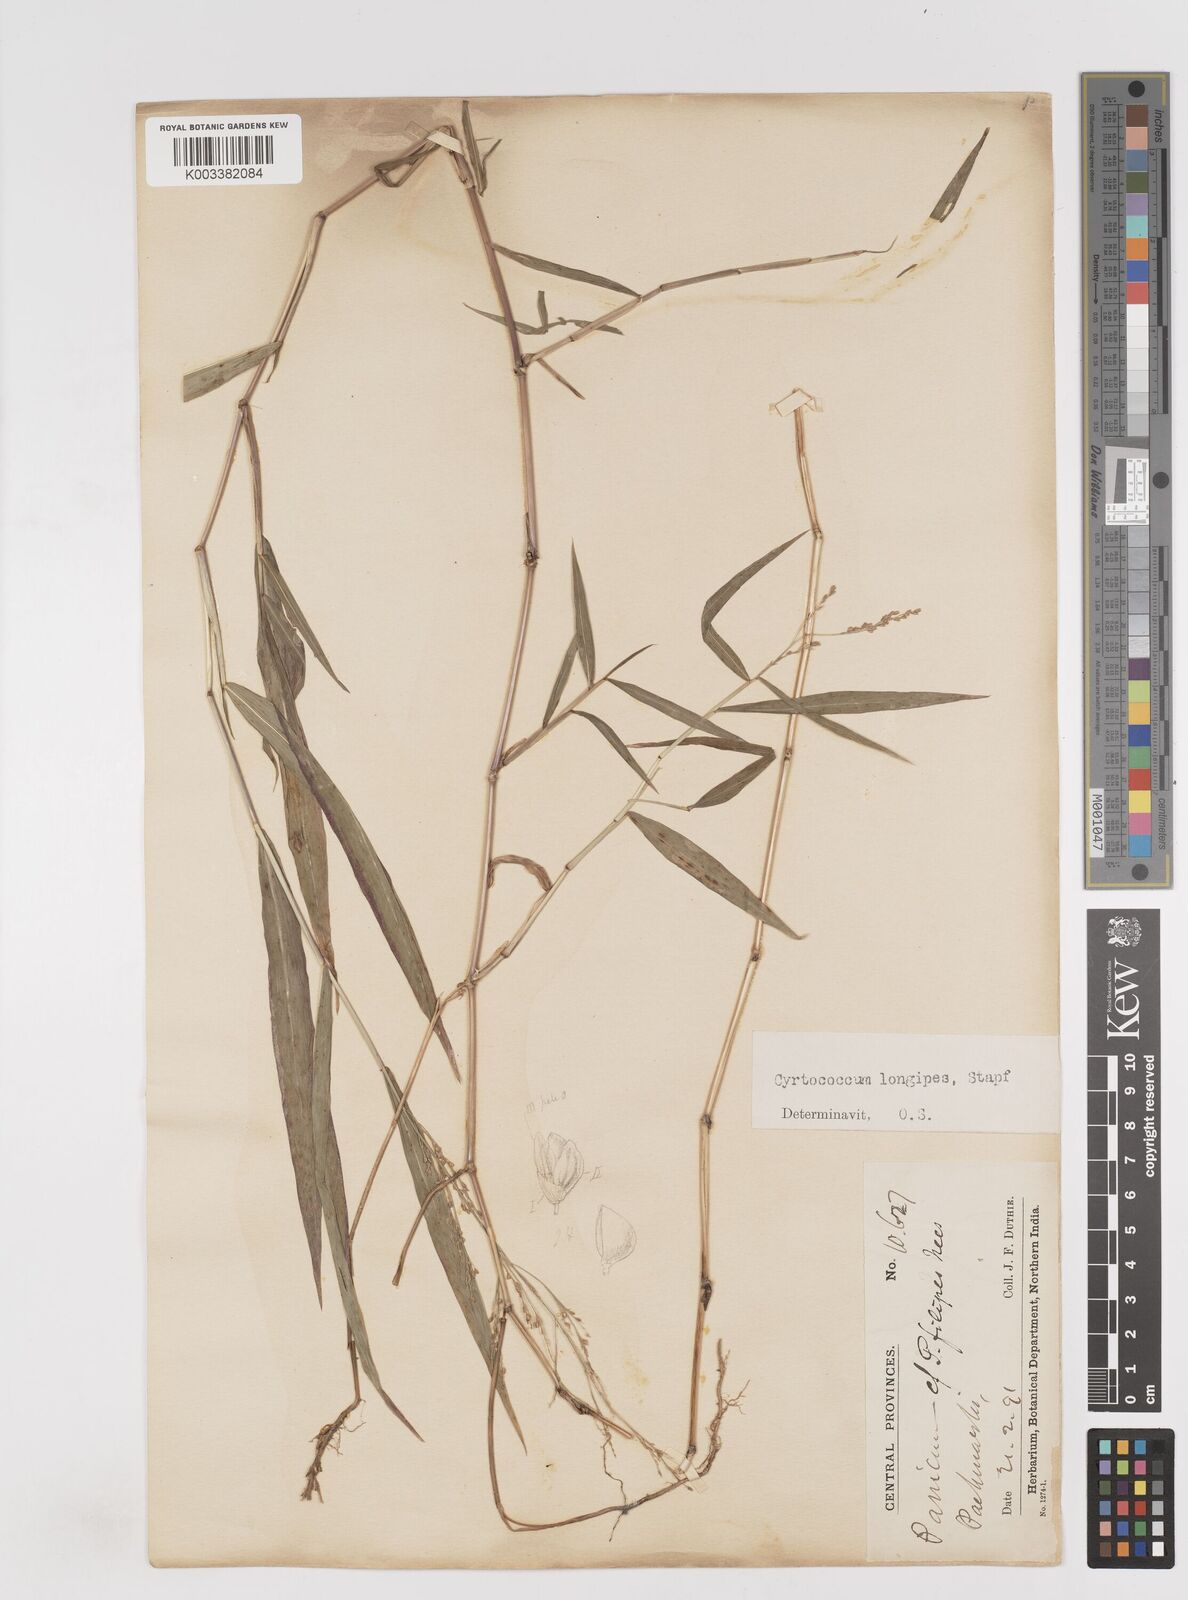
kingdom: Plantae
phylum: Tracheophyta
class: Liliopsida
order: Poales
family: Poaceae
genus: Cyrtococcum
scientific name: Cyrtococcum longipes
